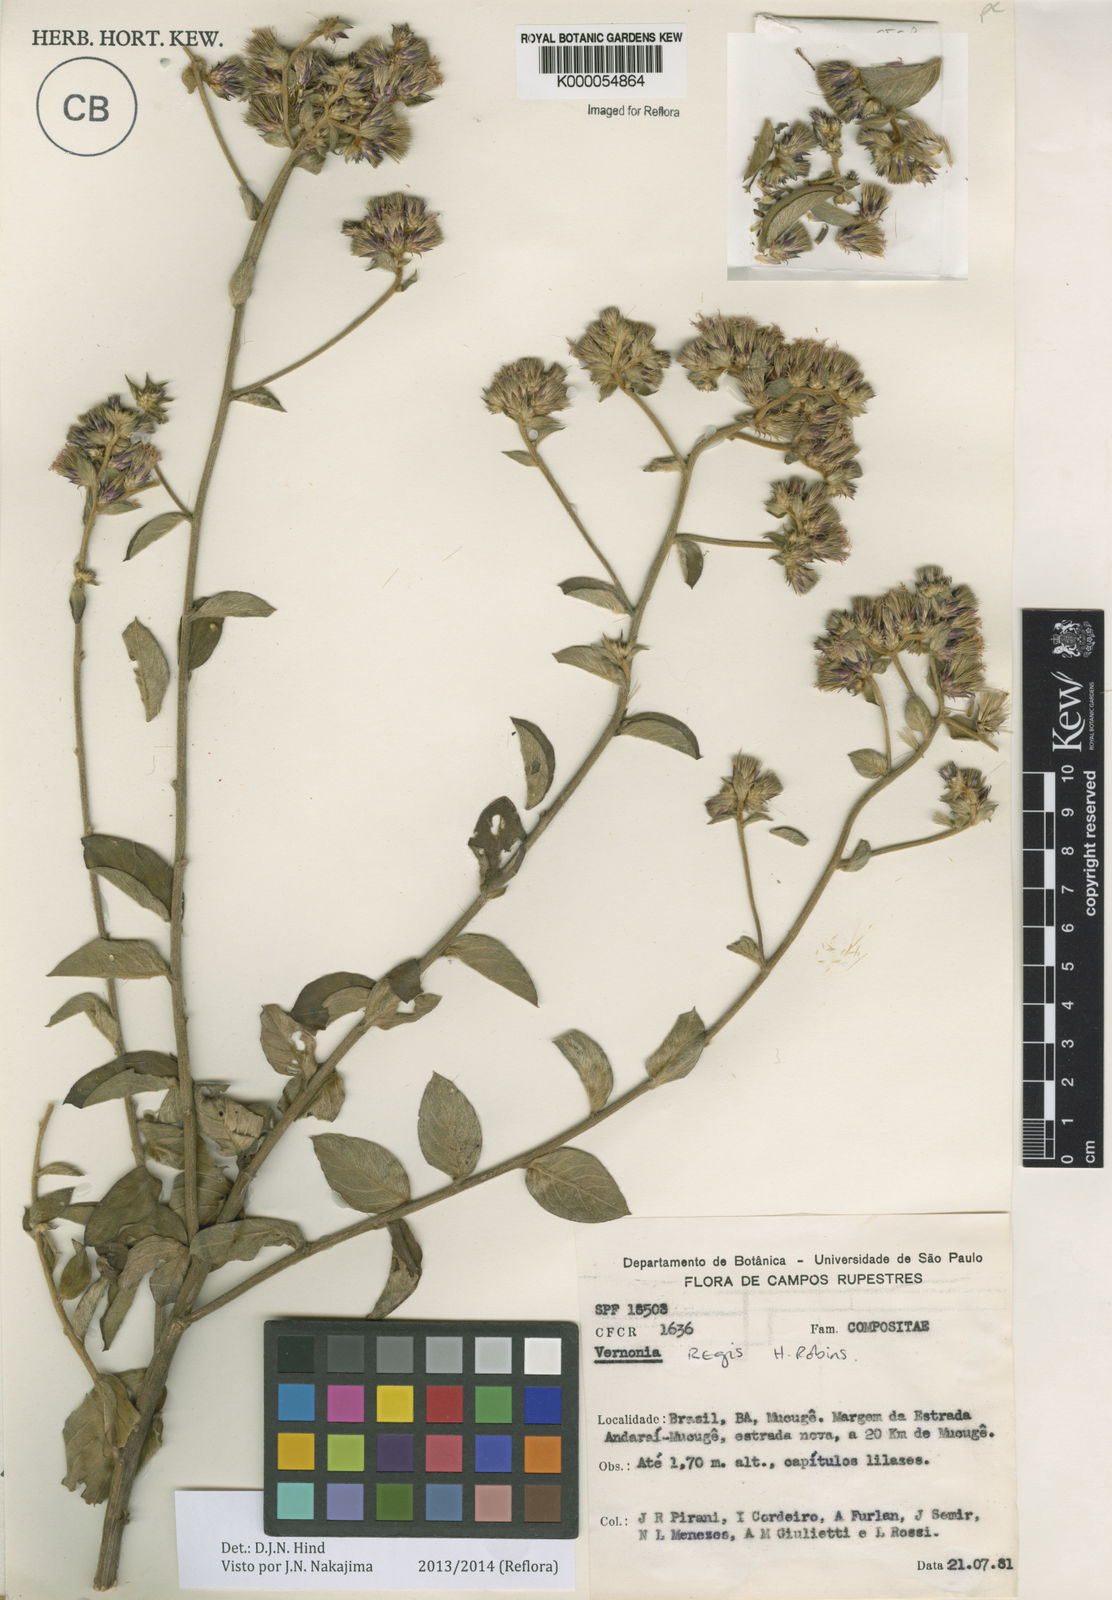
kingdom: Plantae
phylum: Tracheophyta
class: Magnoliopsida
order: Asterales
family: Asteraceae
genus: Lessingianthus
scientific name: Lessingianthus regis
